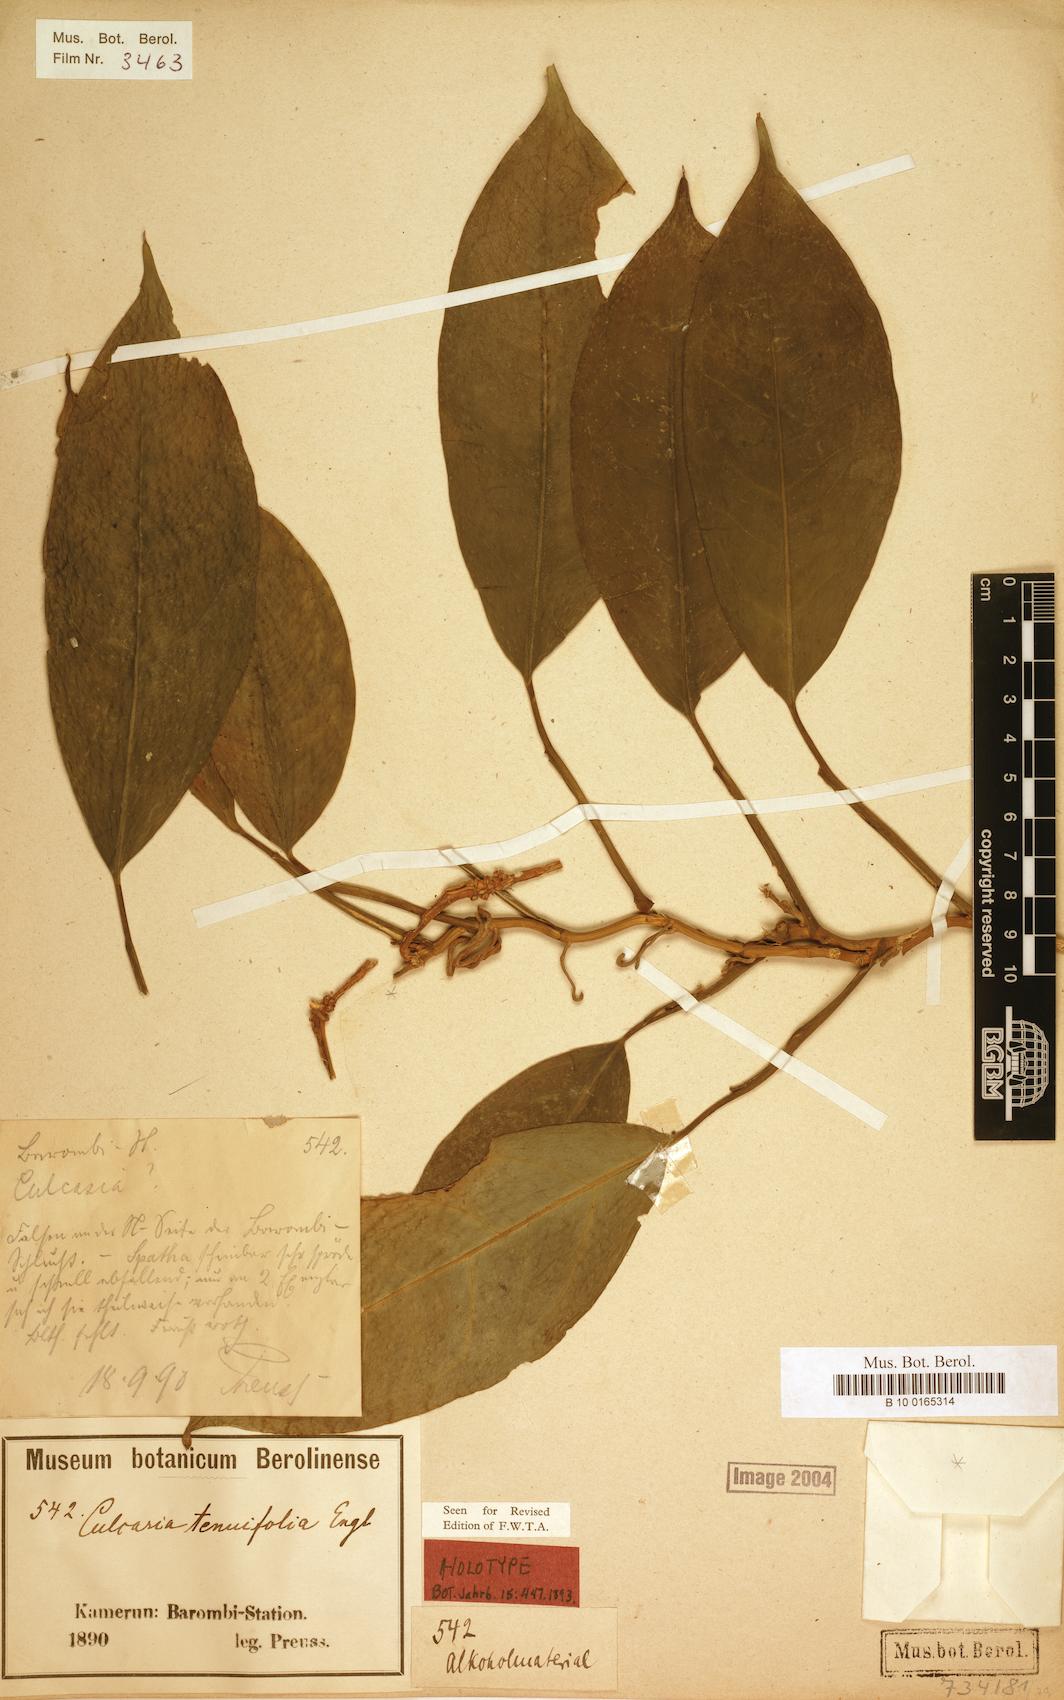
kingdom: Plantae
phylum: Tracheophyta
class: Liliopsida
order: Alismatales
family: Araceae
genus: Culcasia
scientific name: Culcasia tenuifolia
